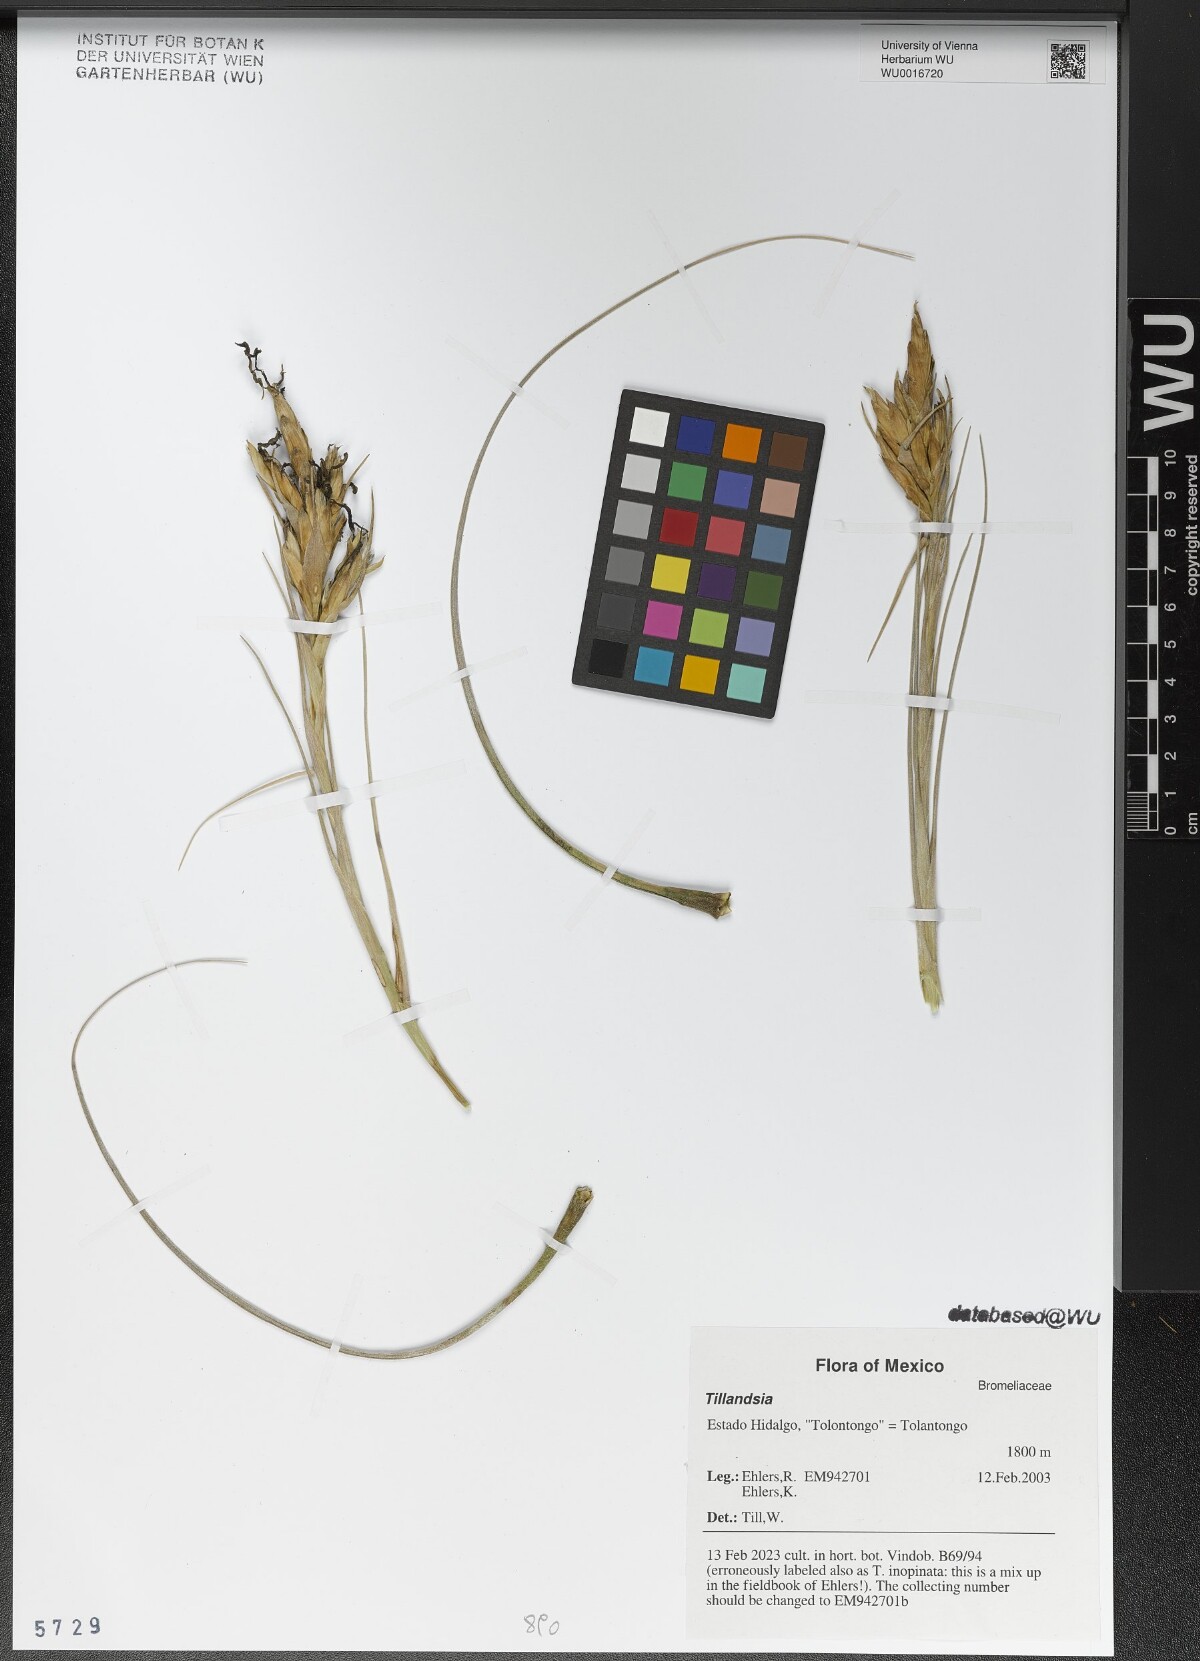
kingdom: Plantae
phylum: Tracheophyta
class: Liliopsida
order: Poales
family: Bromeliaceae
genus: Tillandsia
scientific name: Tillandsia
